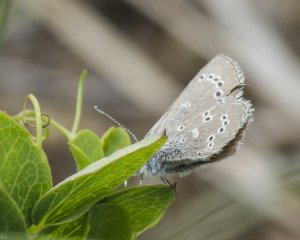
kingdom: Animalia
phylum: Arthropoda
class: Insecta
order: Lepidoptera
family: Lycaenidae
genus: Glaucopsyche
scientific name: Glaucopsyche lygdamus
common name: Silvery Blue
